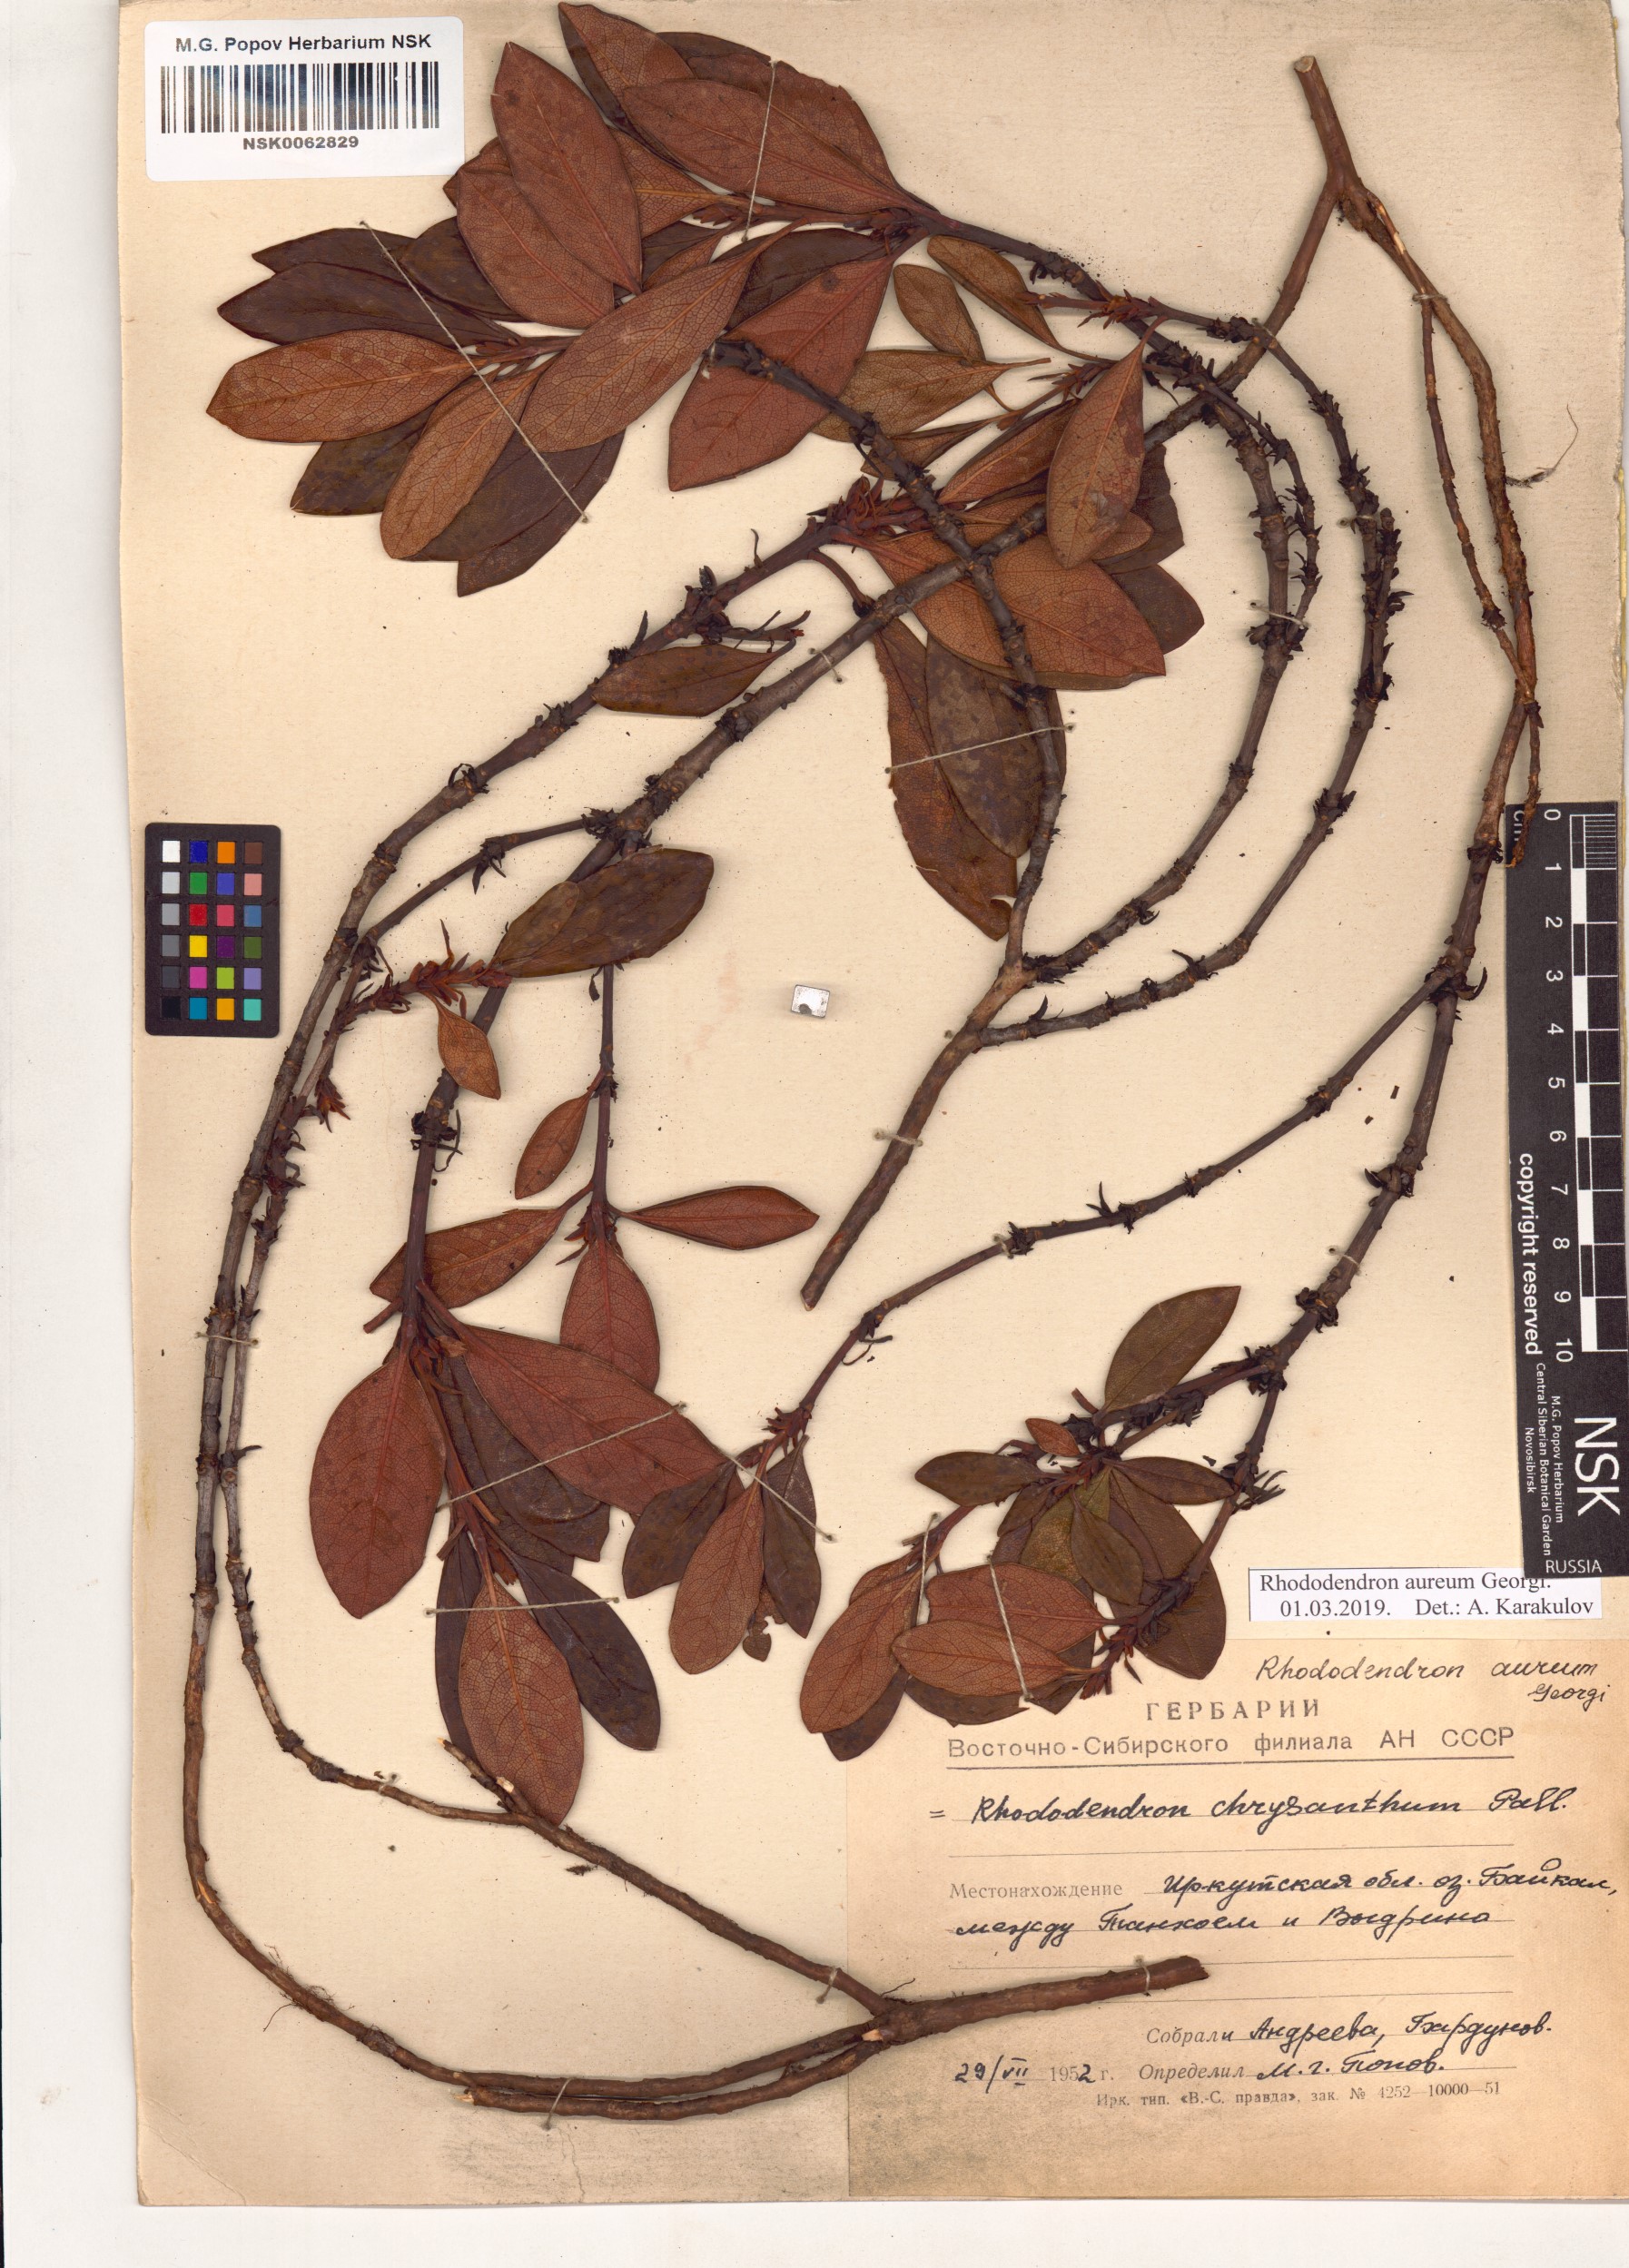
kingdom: Plantae
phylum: Tracheophyta
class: Magnoliopsida
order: Ericales
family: Ericaceae
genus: Rhododendron
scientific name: Rhododendron aureum
